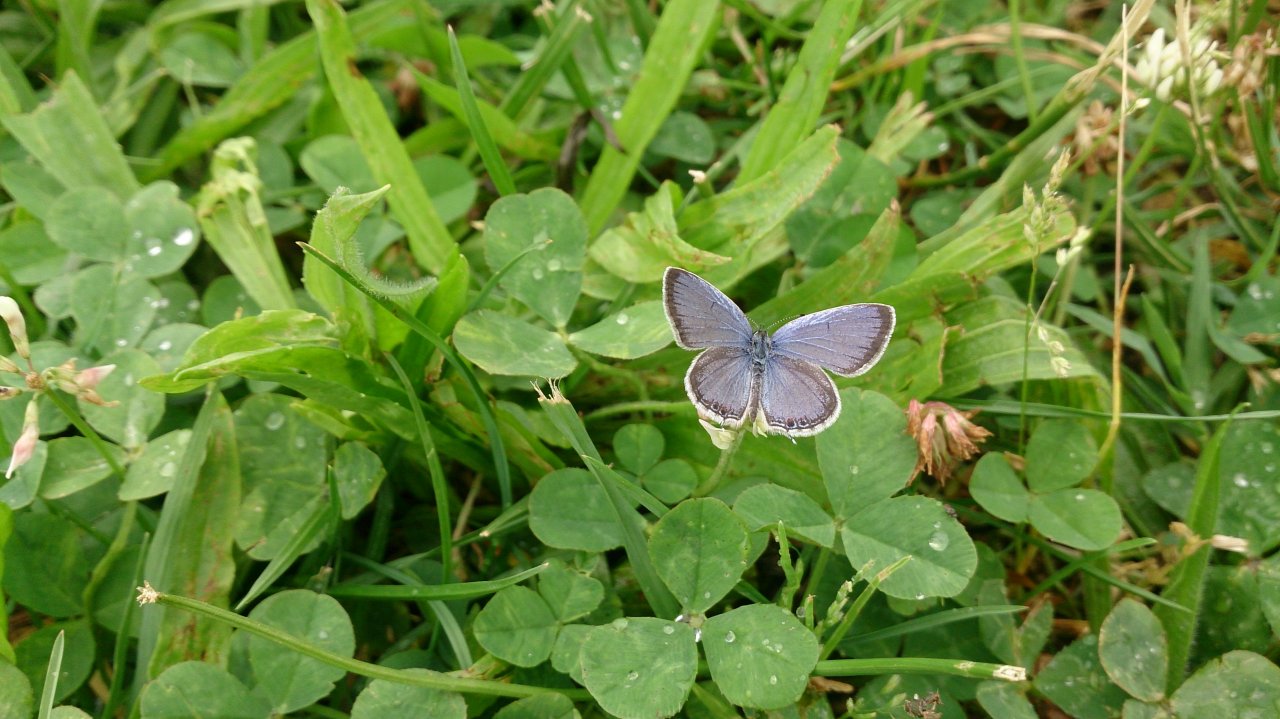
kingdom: Animalia
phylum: Arthropoda
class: Insecta
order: Lepidoptera
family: Lycaenidae
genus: Elkalyce
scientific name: Elkalyce comyntas
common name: Eastern Tailed-Blue
